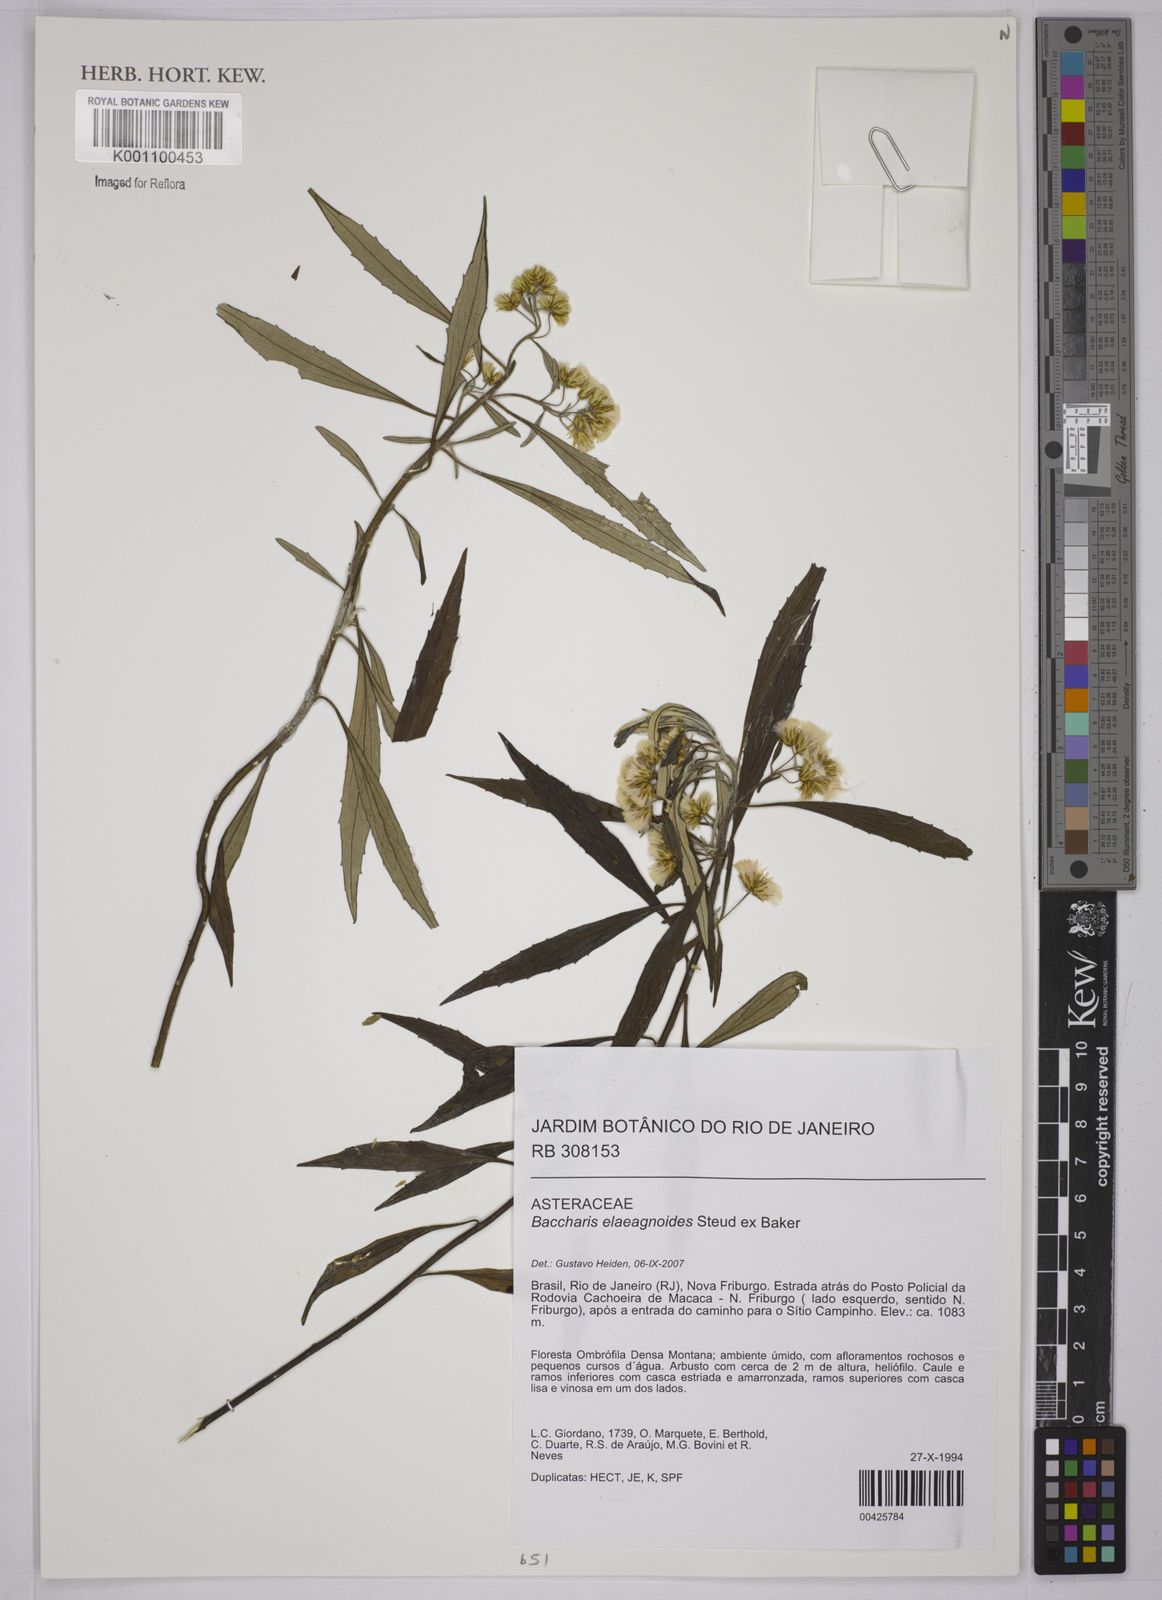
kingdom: Plantae
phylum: Tracheophyta
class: Magnoliopsida
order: Asterales
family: Asteraceae
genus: Baccharis
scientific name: Baccharis
